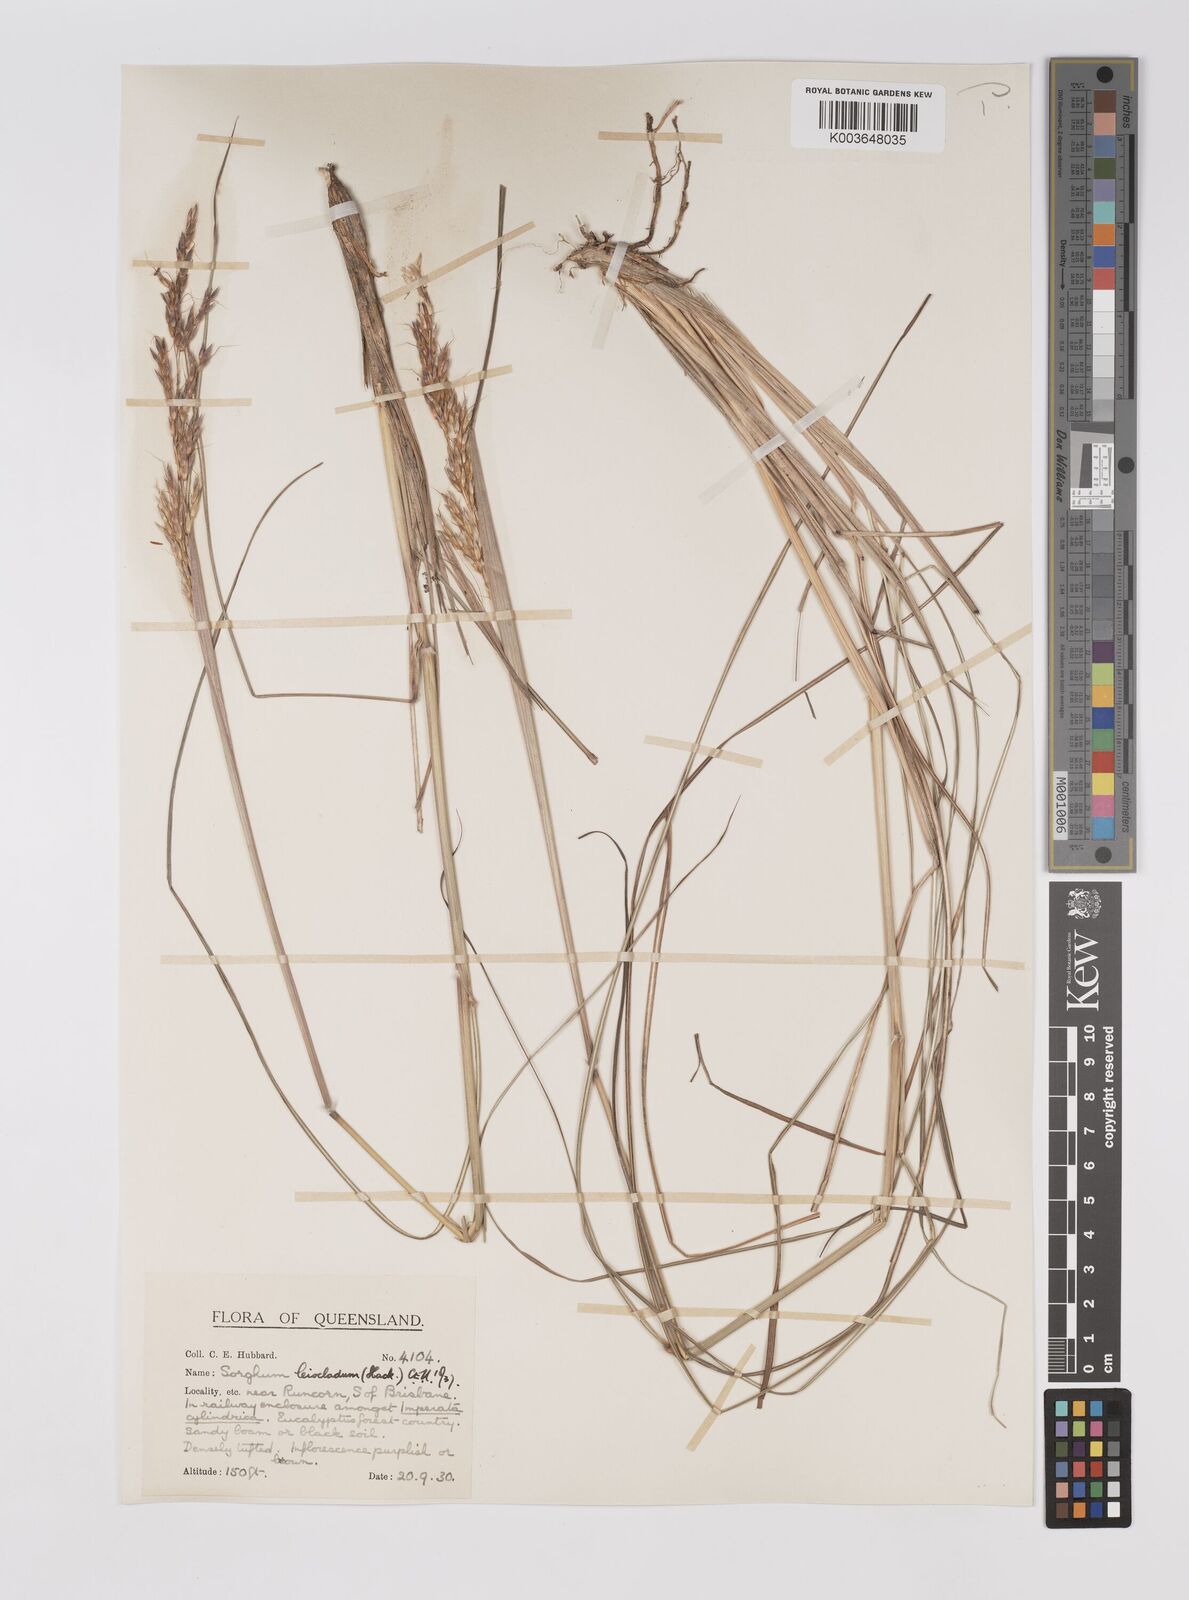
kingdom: Plantae
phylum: Tracheophyta
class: Liliopsida
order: Poales
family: Poaceae
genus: Sarga
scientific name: Sarga leioclada
